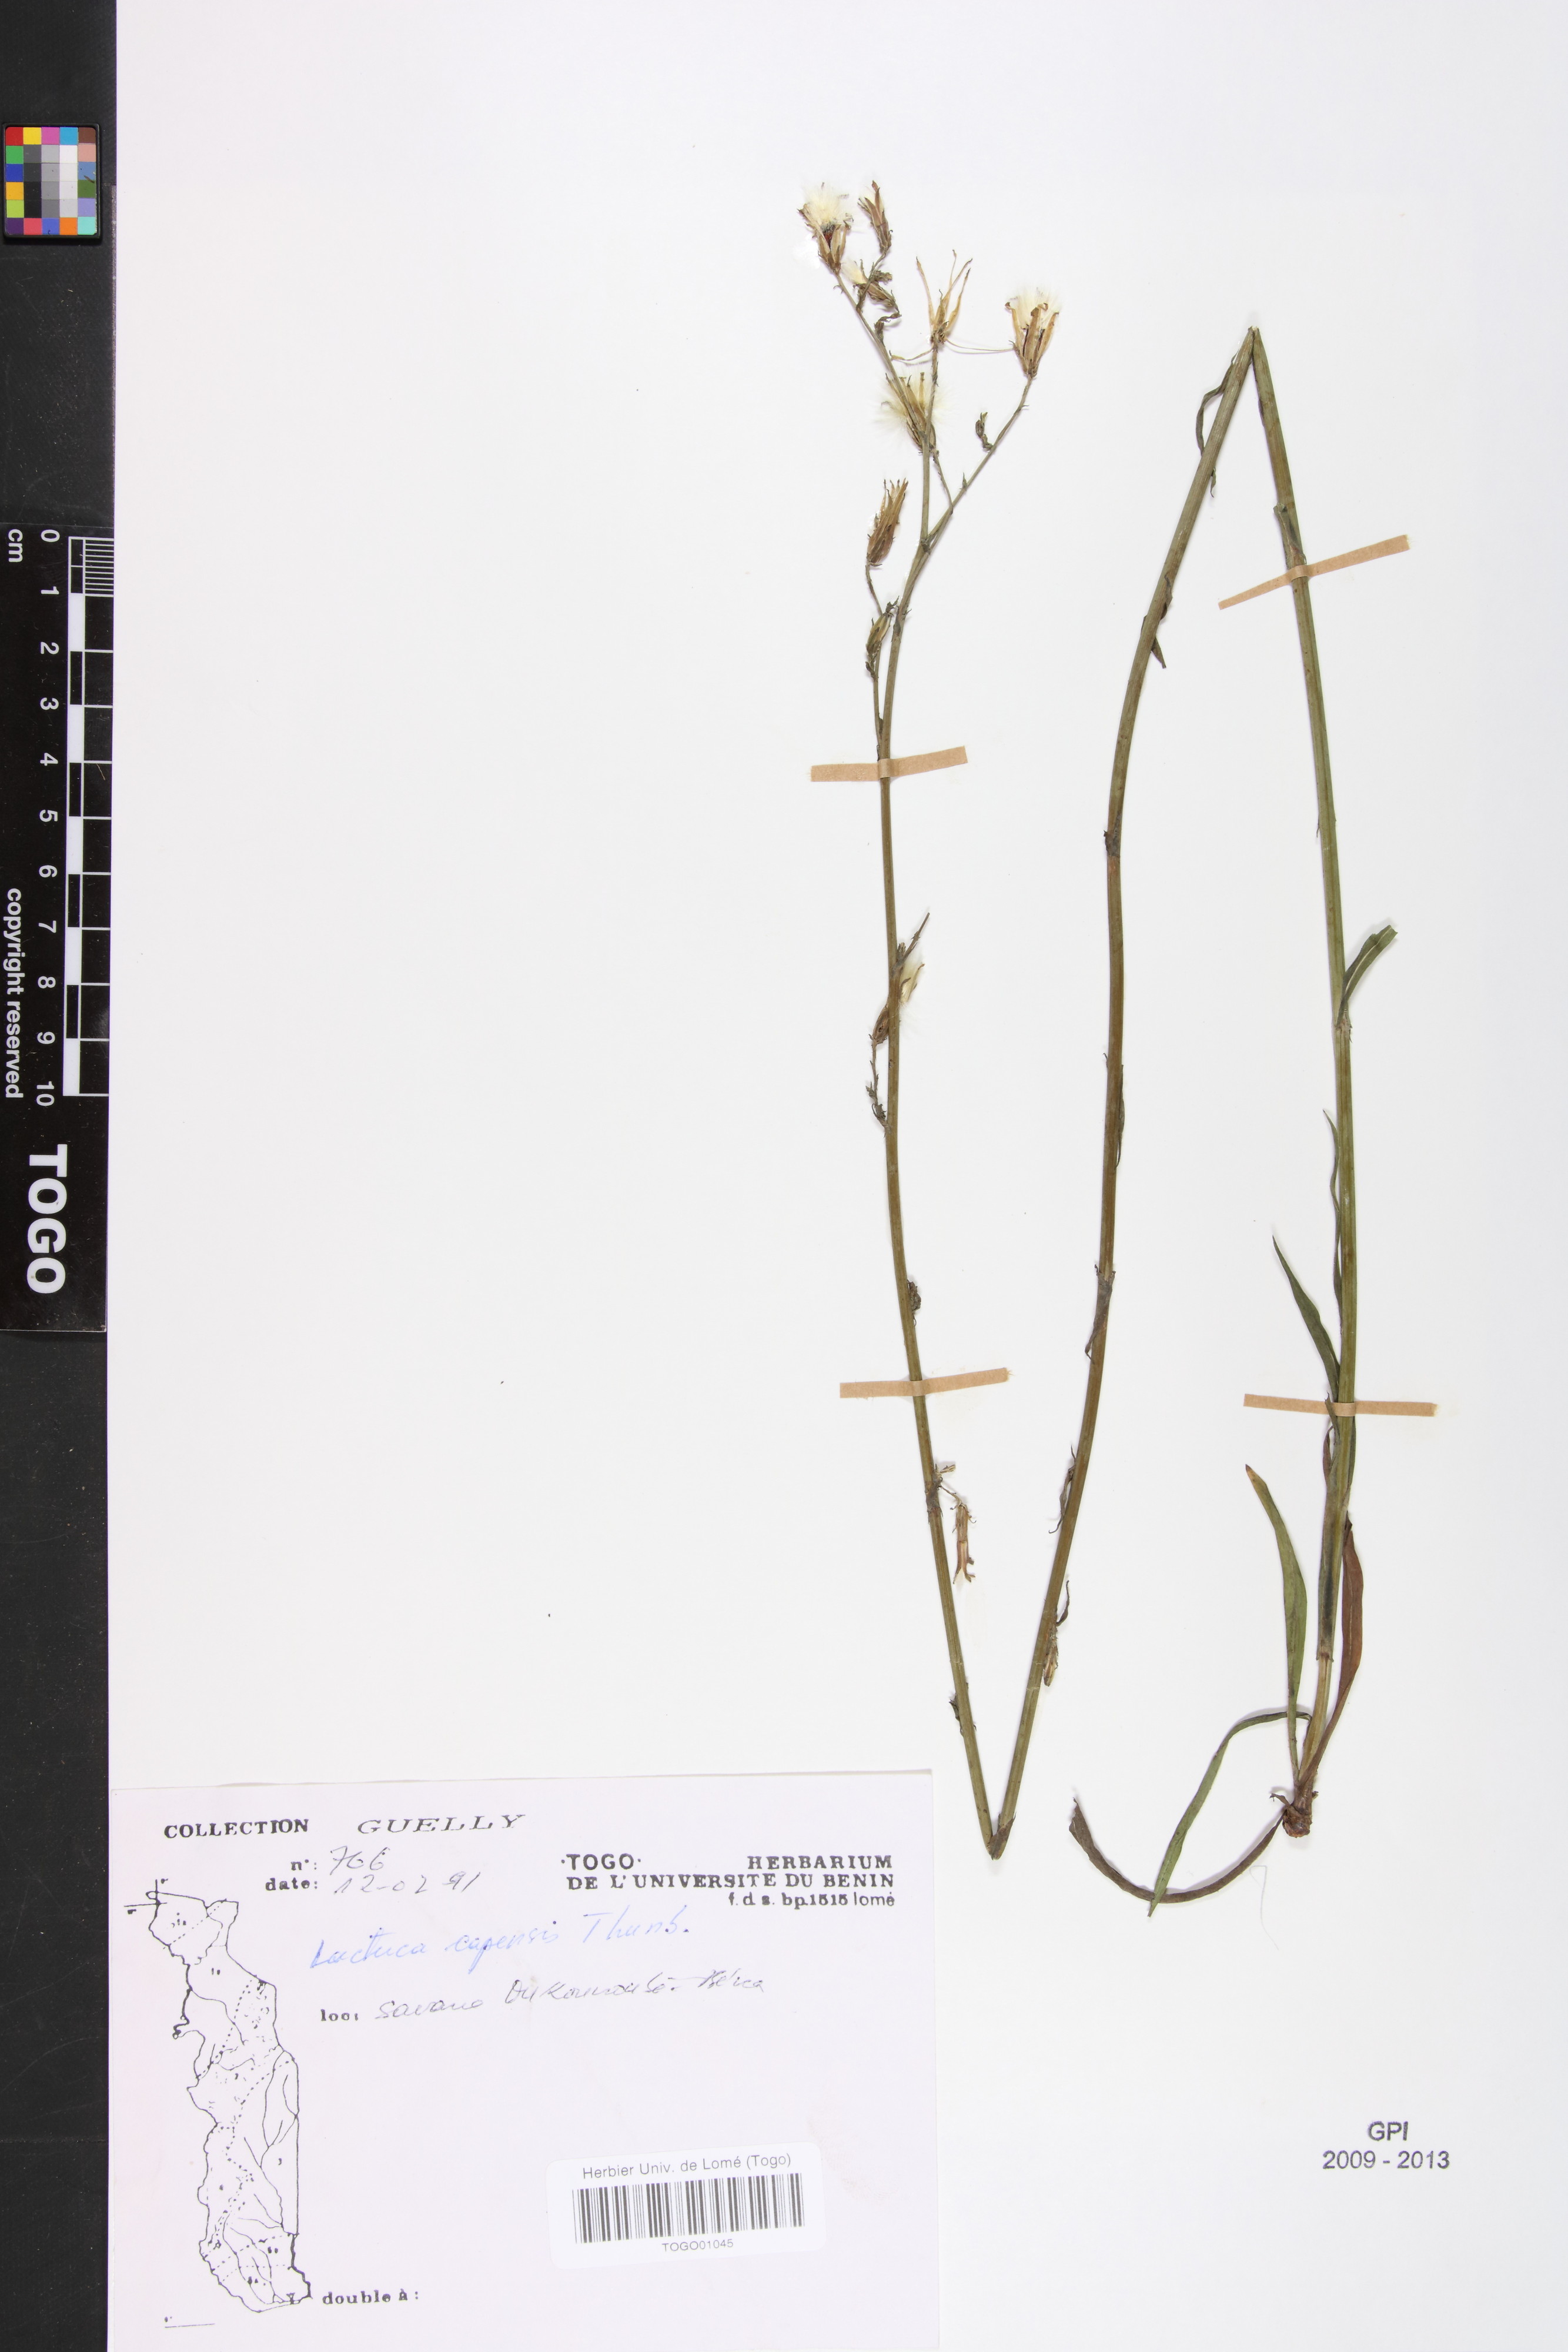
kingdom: Plantae
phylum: Tracheophyta
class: Magnoliopsida
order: Asterales
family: Asteraceae
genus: Lactuca
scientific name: Lactuca inermis
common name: Wild lettuce
